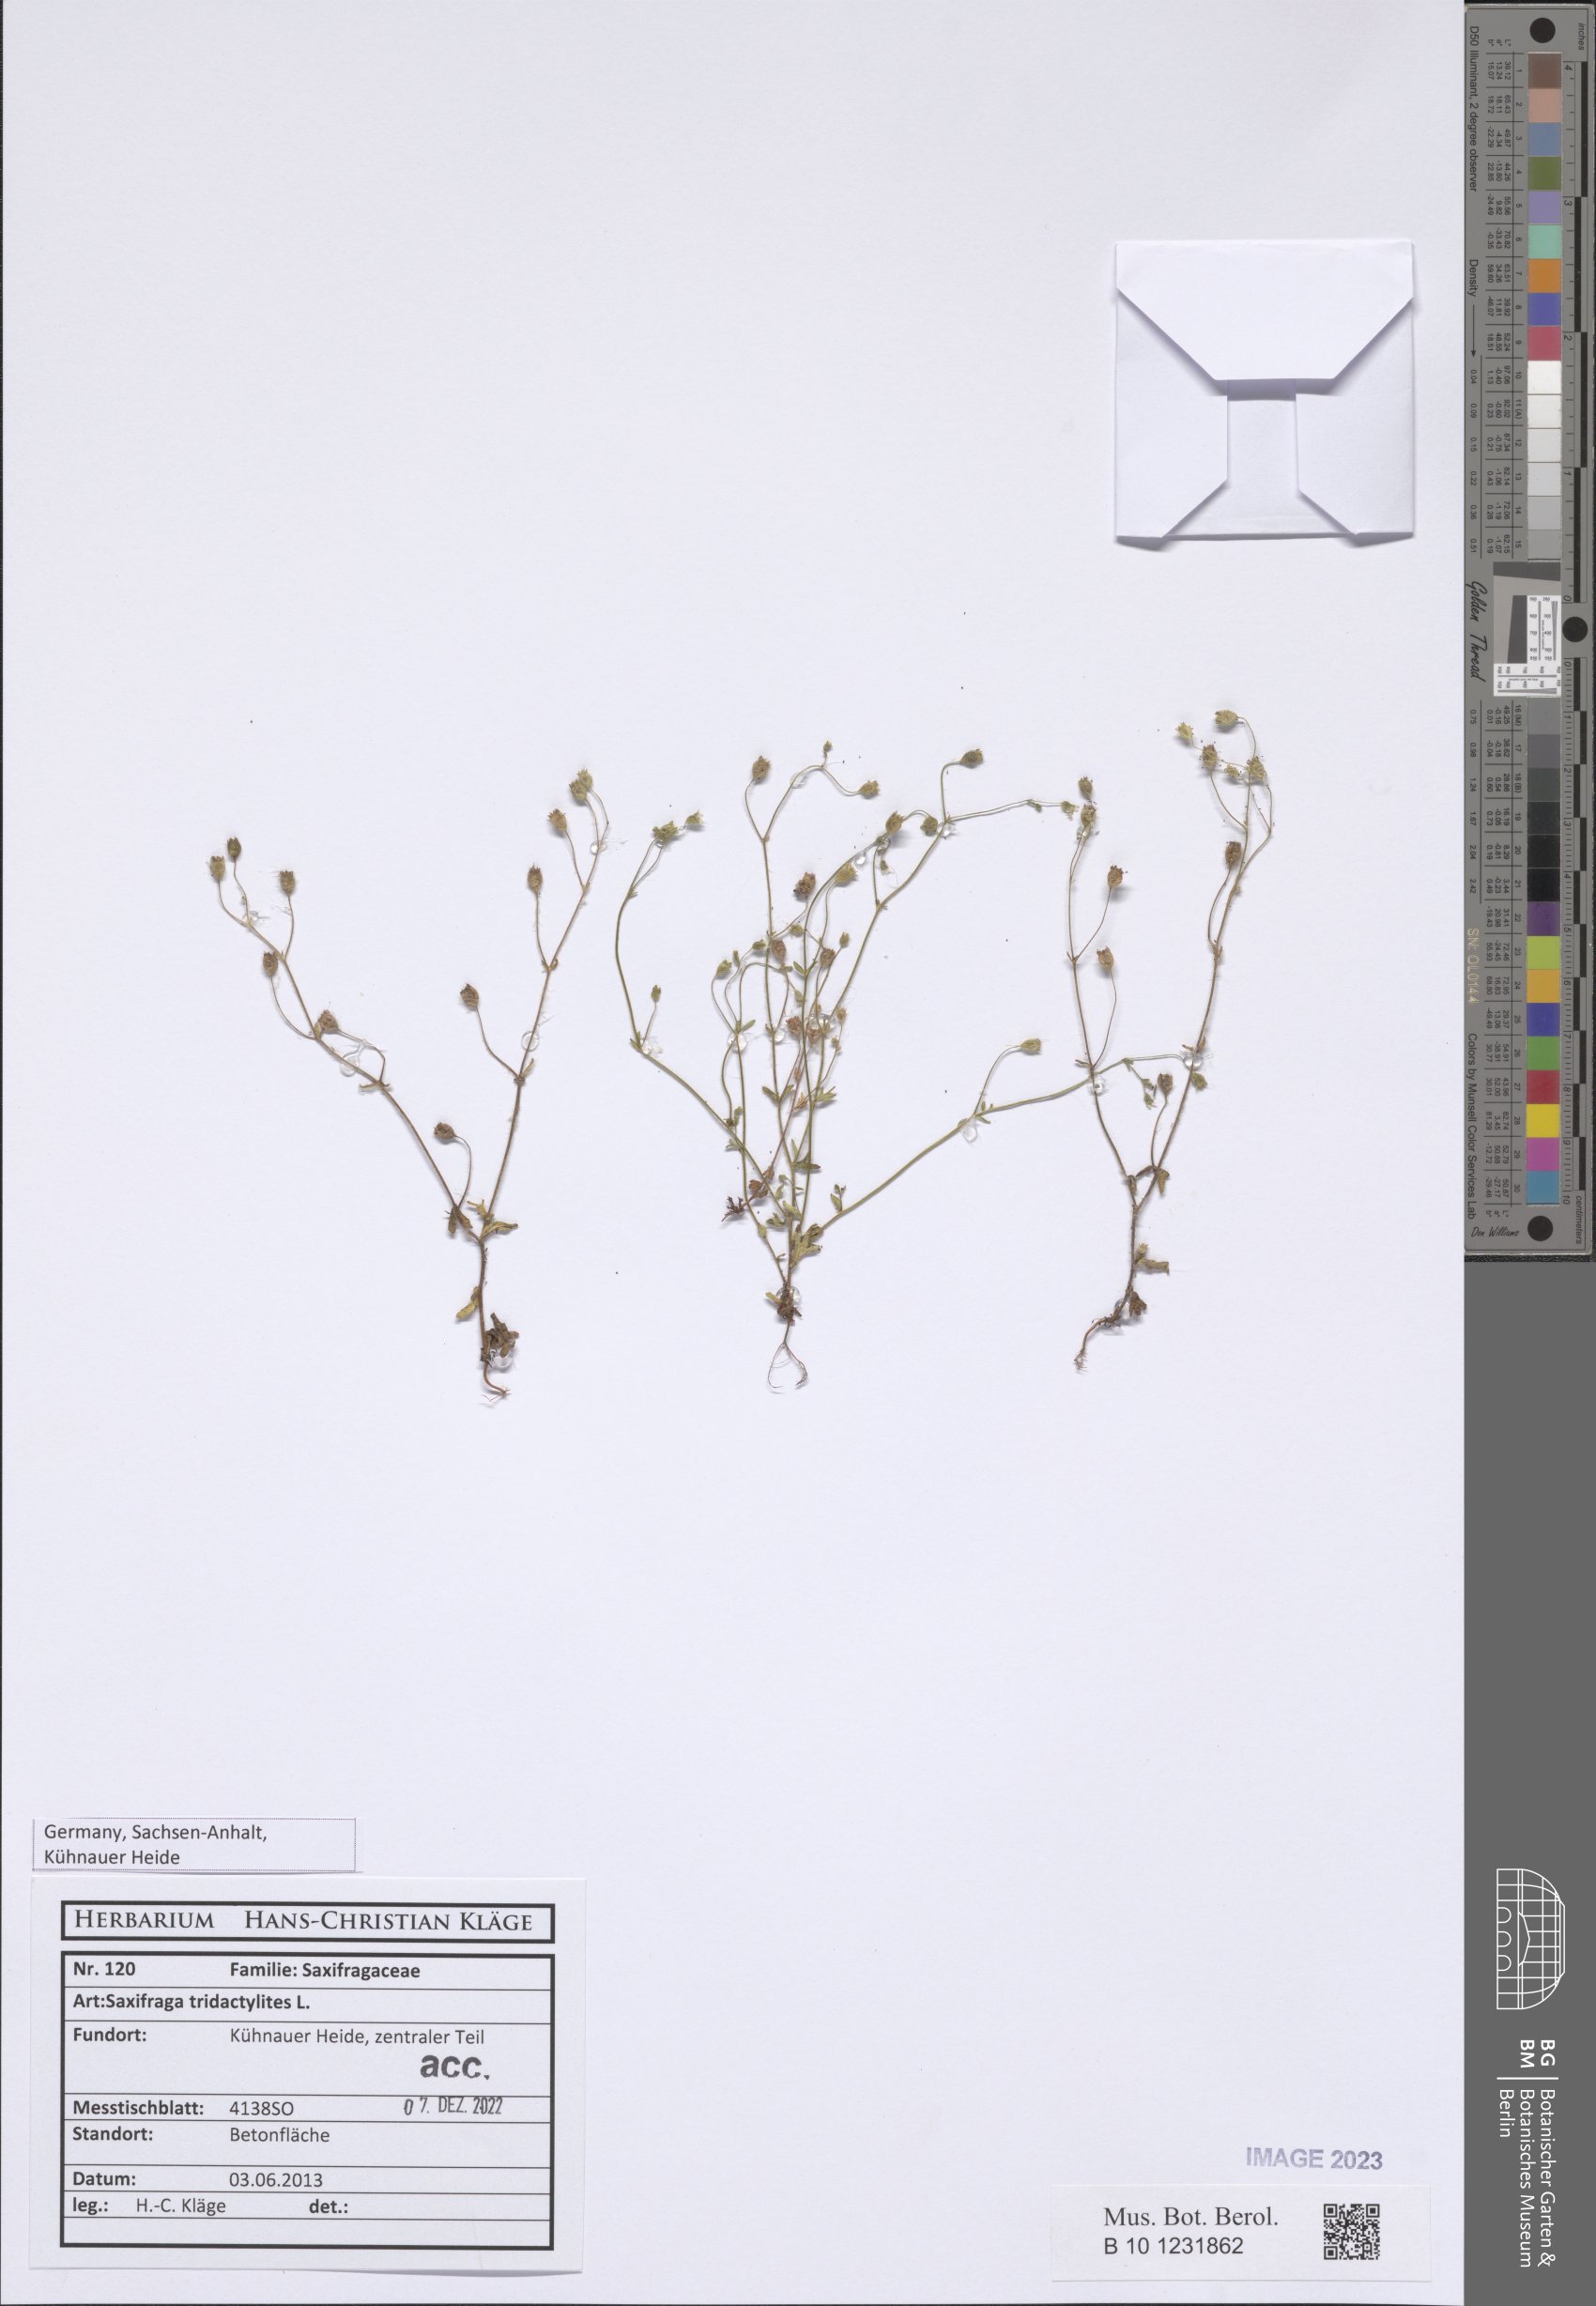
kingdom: Plantae
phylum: Tracheophyta
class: Magnoliopsida
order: Saxifragales
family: Saxifragaceae
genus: Saxifraga
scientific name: Saxifraga tridactylites
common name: Rue-leaved saxifrage
